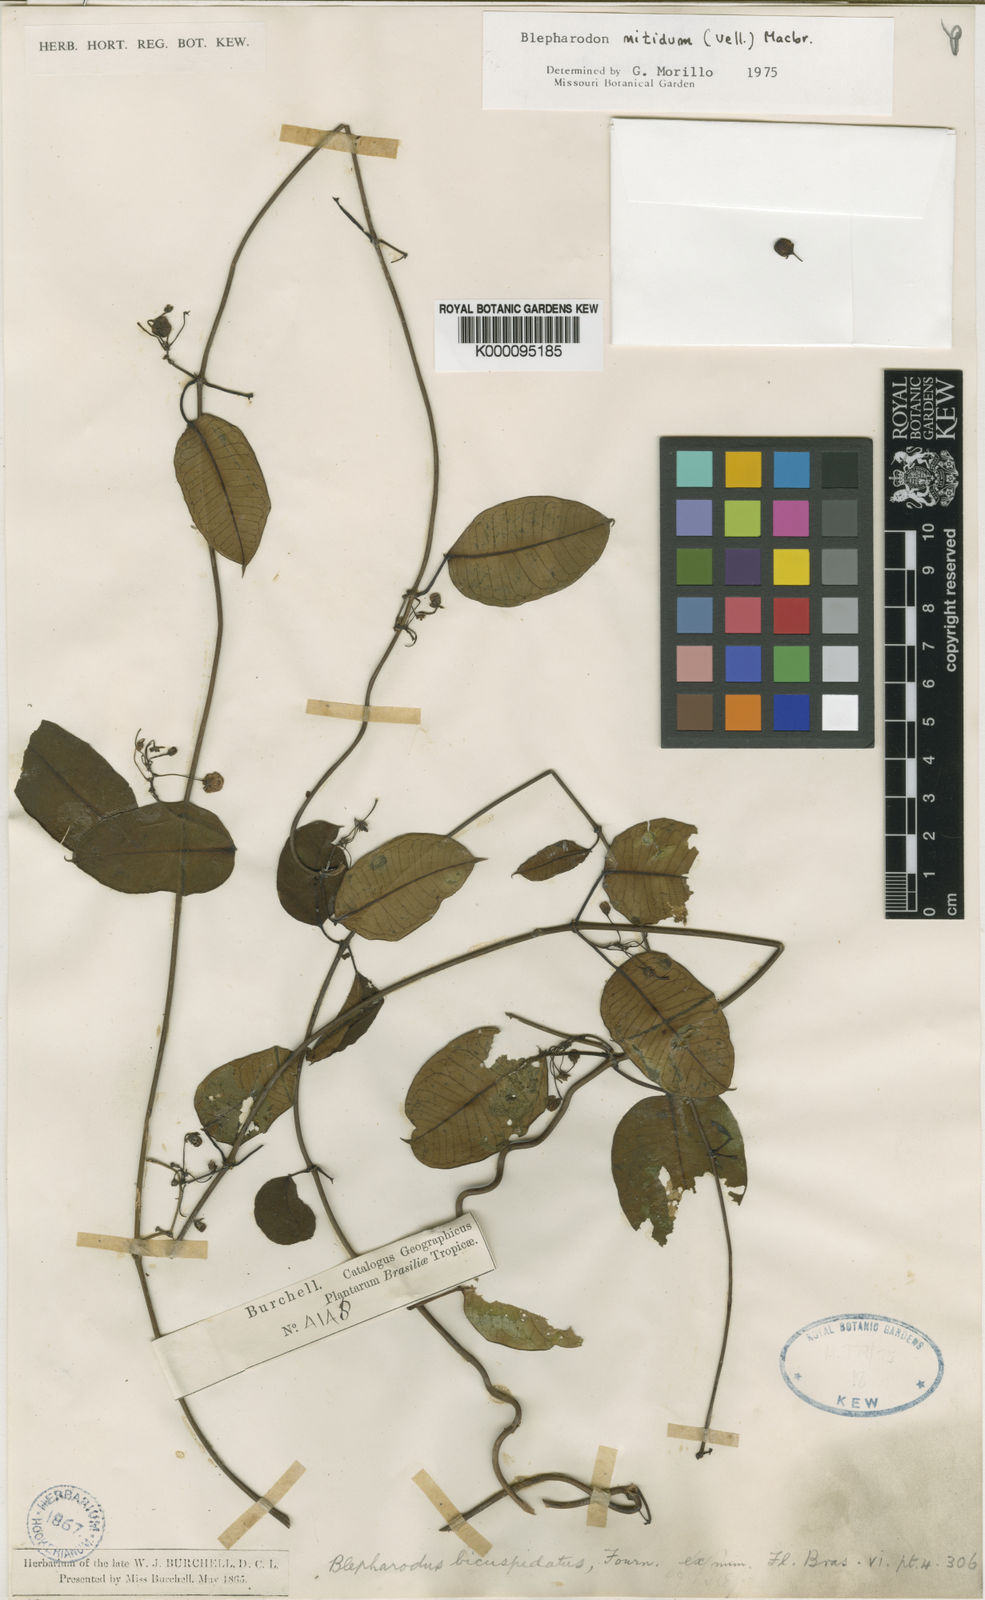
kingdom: Plantae
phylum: Tracheophyta
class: Magnoliopsida
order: Gentianales
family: Apocynaceae
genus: Blepharodon
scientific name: Blepharodon bicuspidatum
